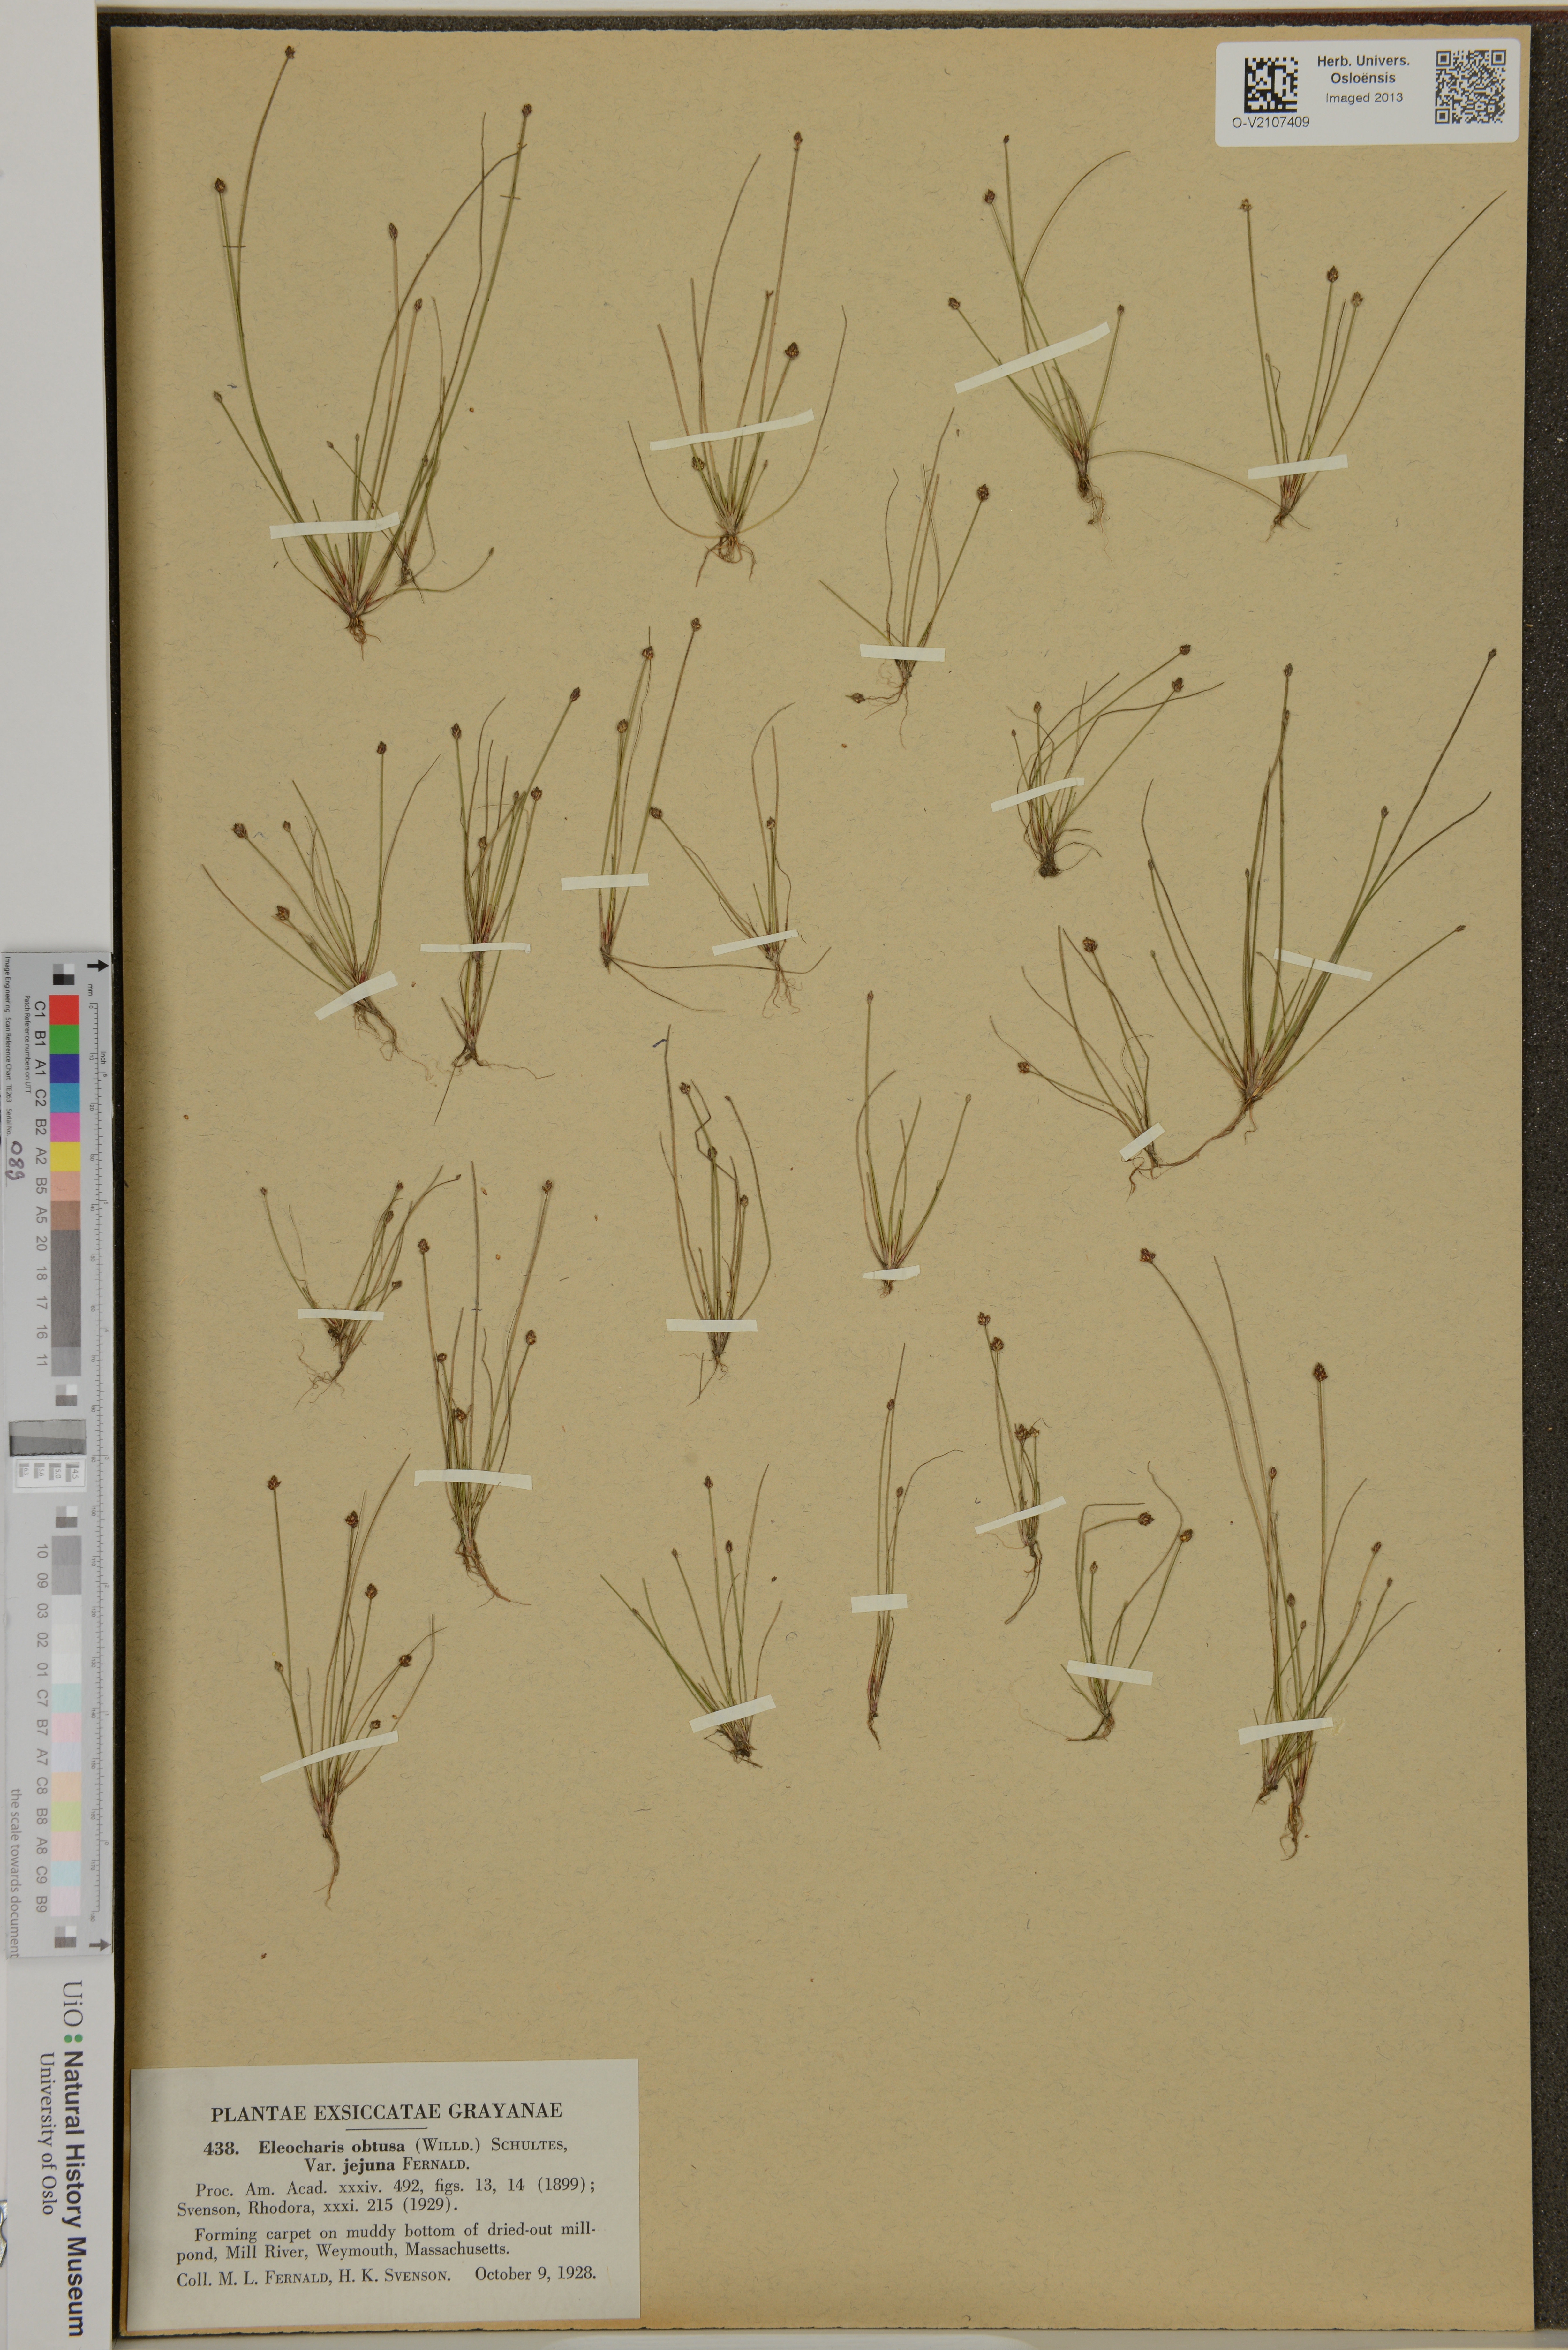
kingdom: Plantae
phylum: Tracheophyta
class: Liliopsida
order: Poales
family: Cyperaceae
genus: Eleocharis
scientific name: Eleocharis obtusa
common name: Blunt spikerush
